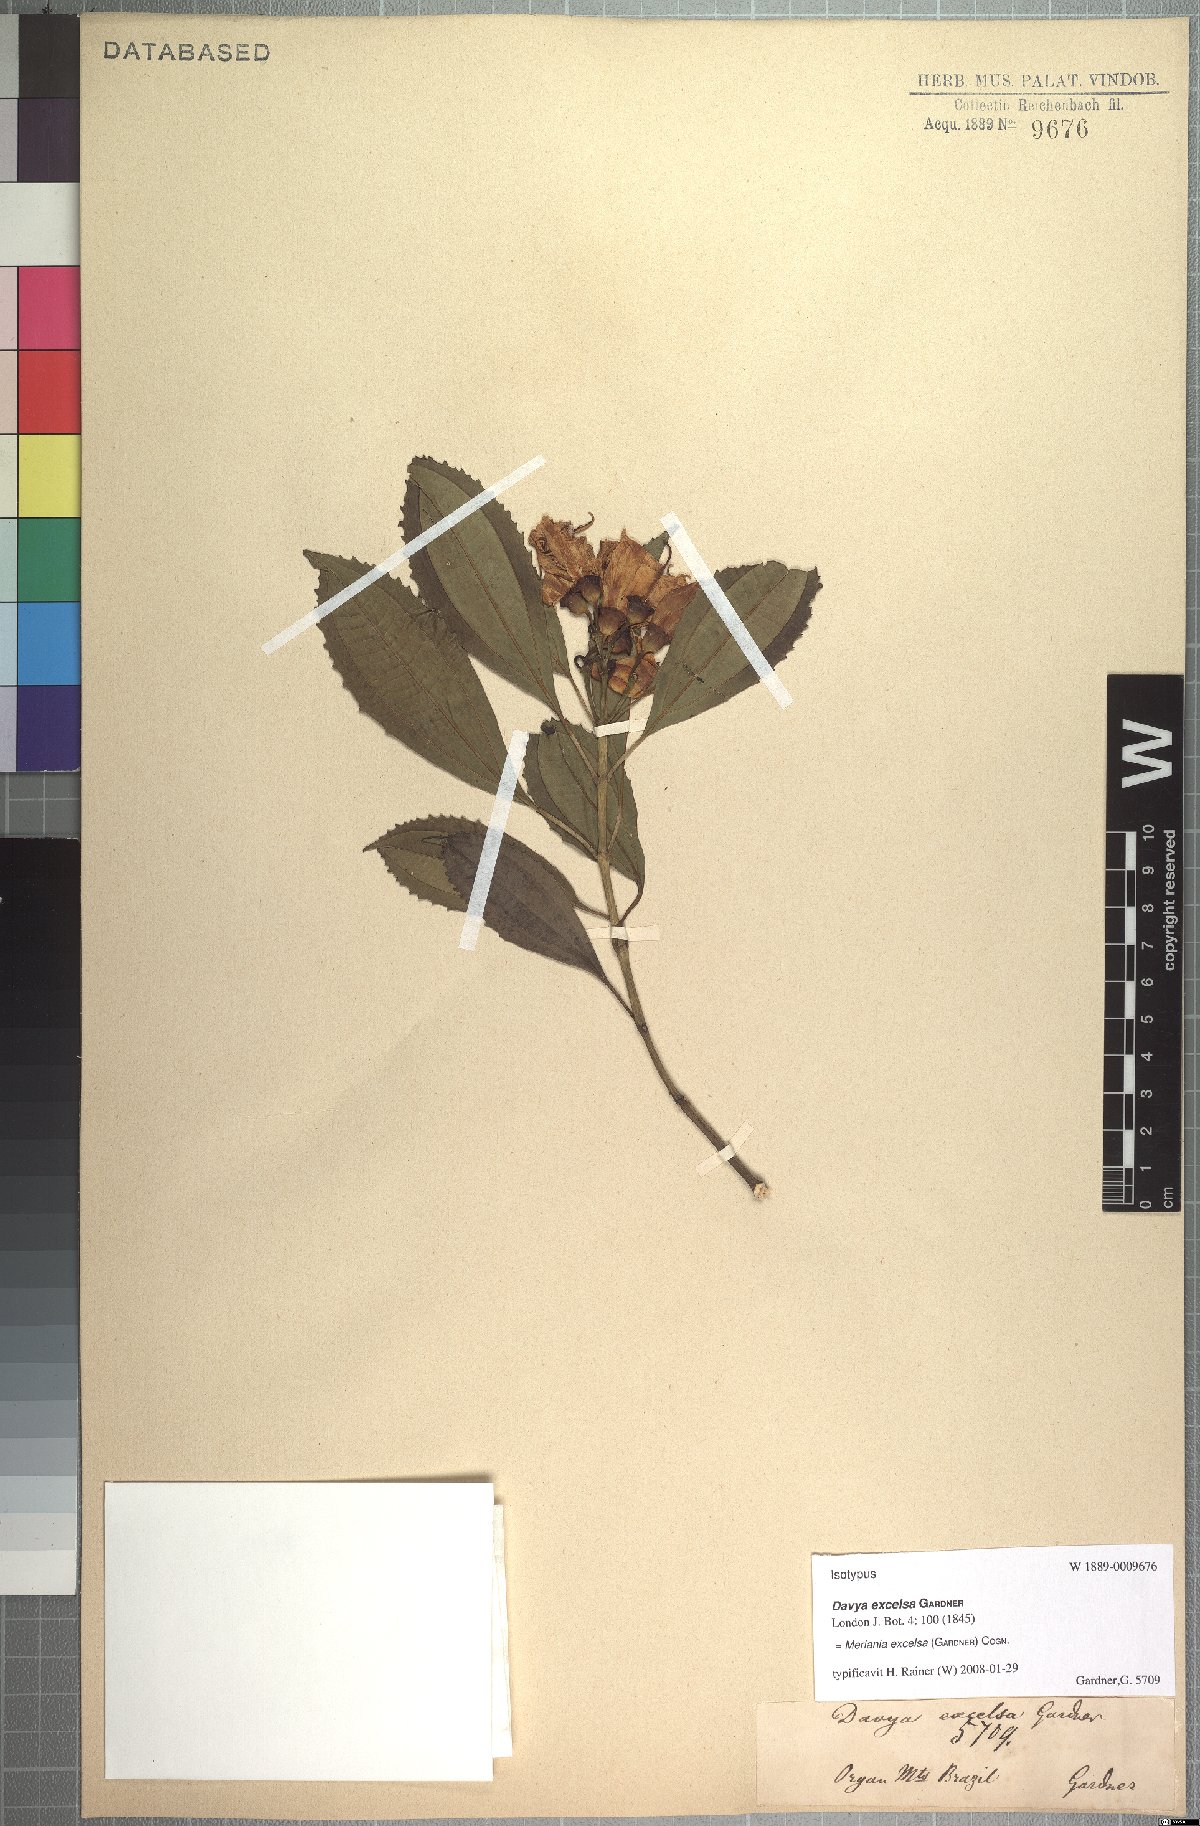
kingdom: Plantae
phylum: Tracheophyta
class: Magnoliopsida
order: Myrtales
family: Melastomataceae
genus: Meriania
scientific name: Meriania excelsa
